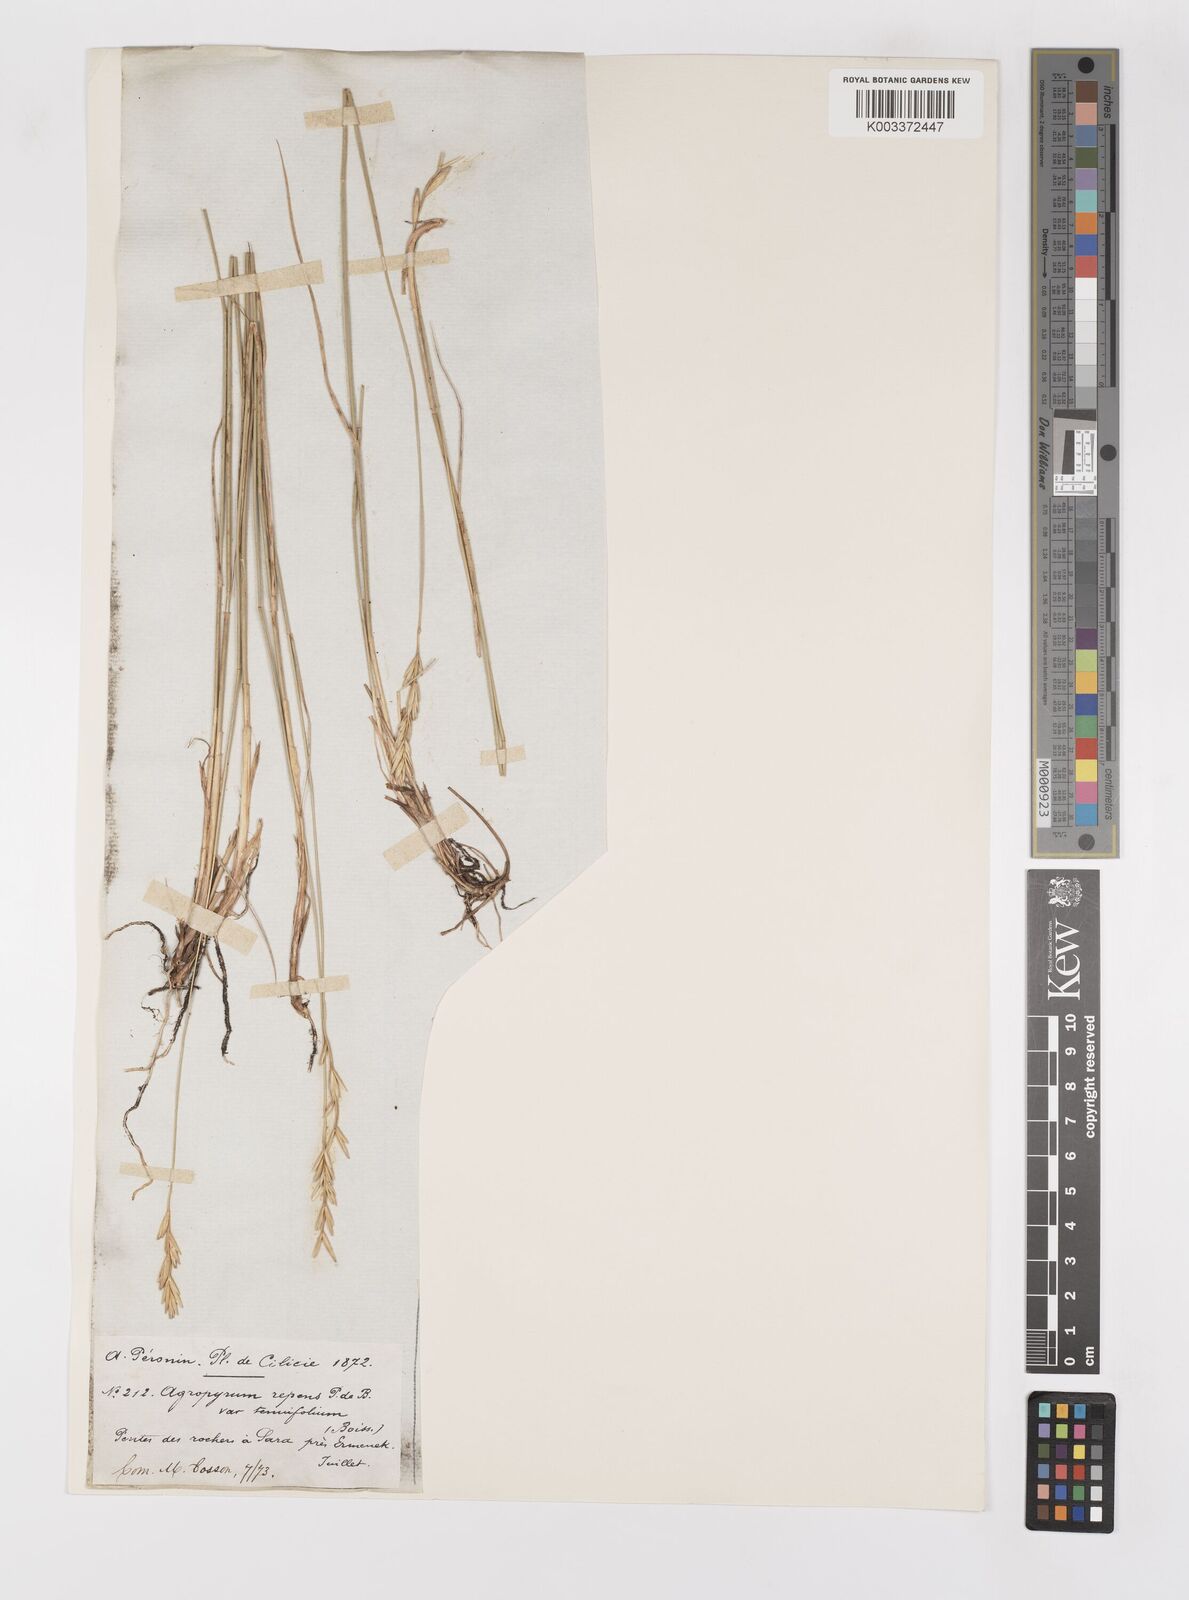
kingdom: Plantae
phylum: Tracheophyta
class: Liliopsida
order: Poales
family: Poaceae
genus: Elymus
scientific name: Elymus repens
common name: Quackgrass
